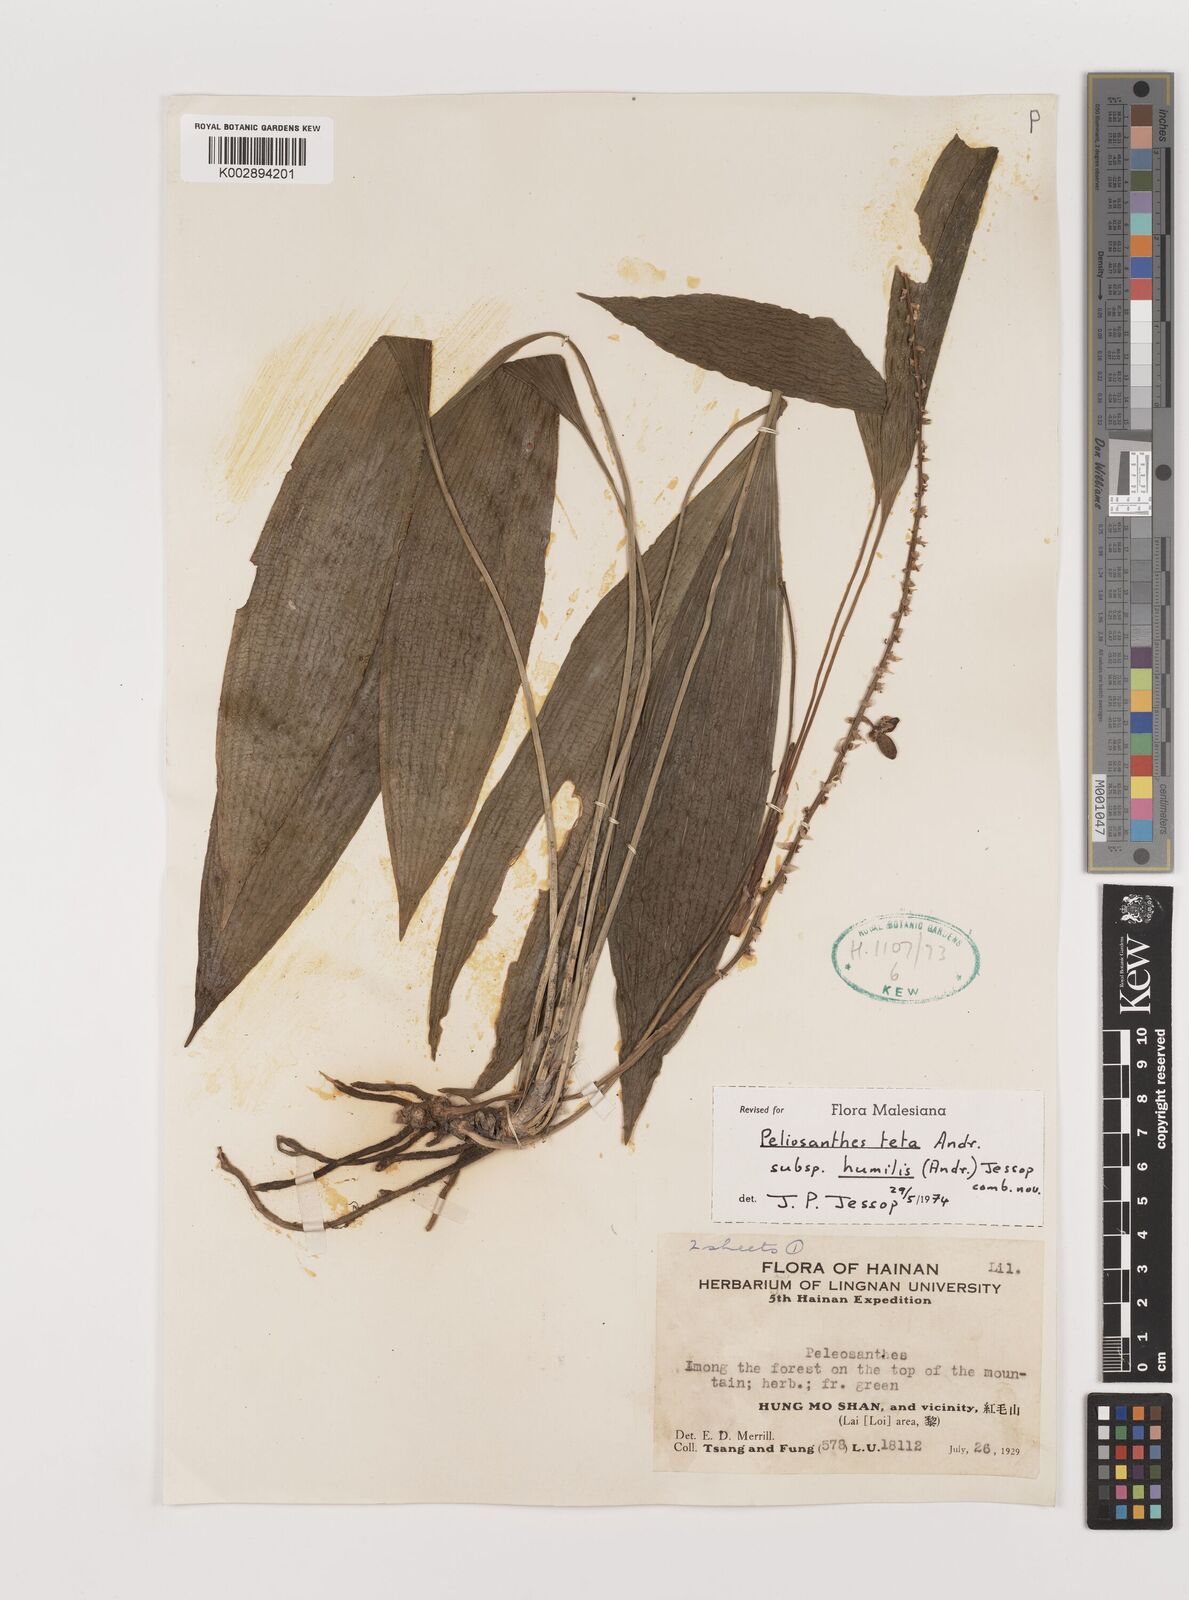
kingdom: Plantae
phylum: Tracheophyta
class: Liliopsida
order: Asparagales
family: Asparagaceae
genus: Peliosanthes
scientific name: Peliosanthes teta
